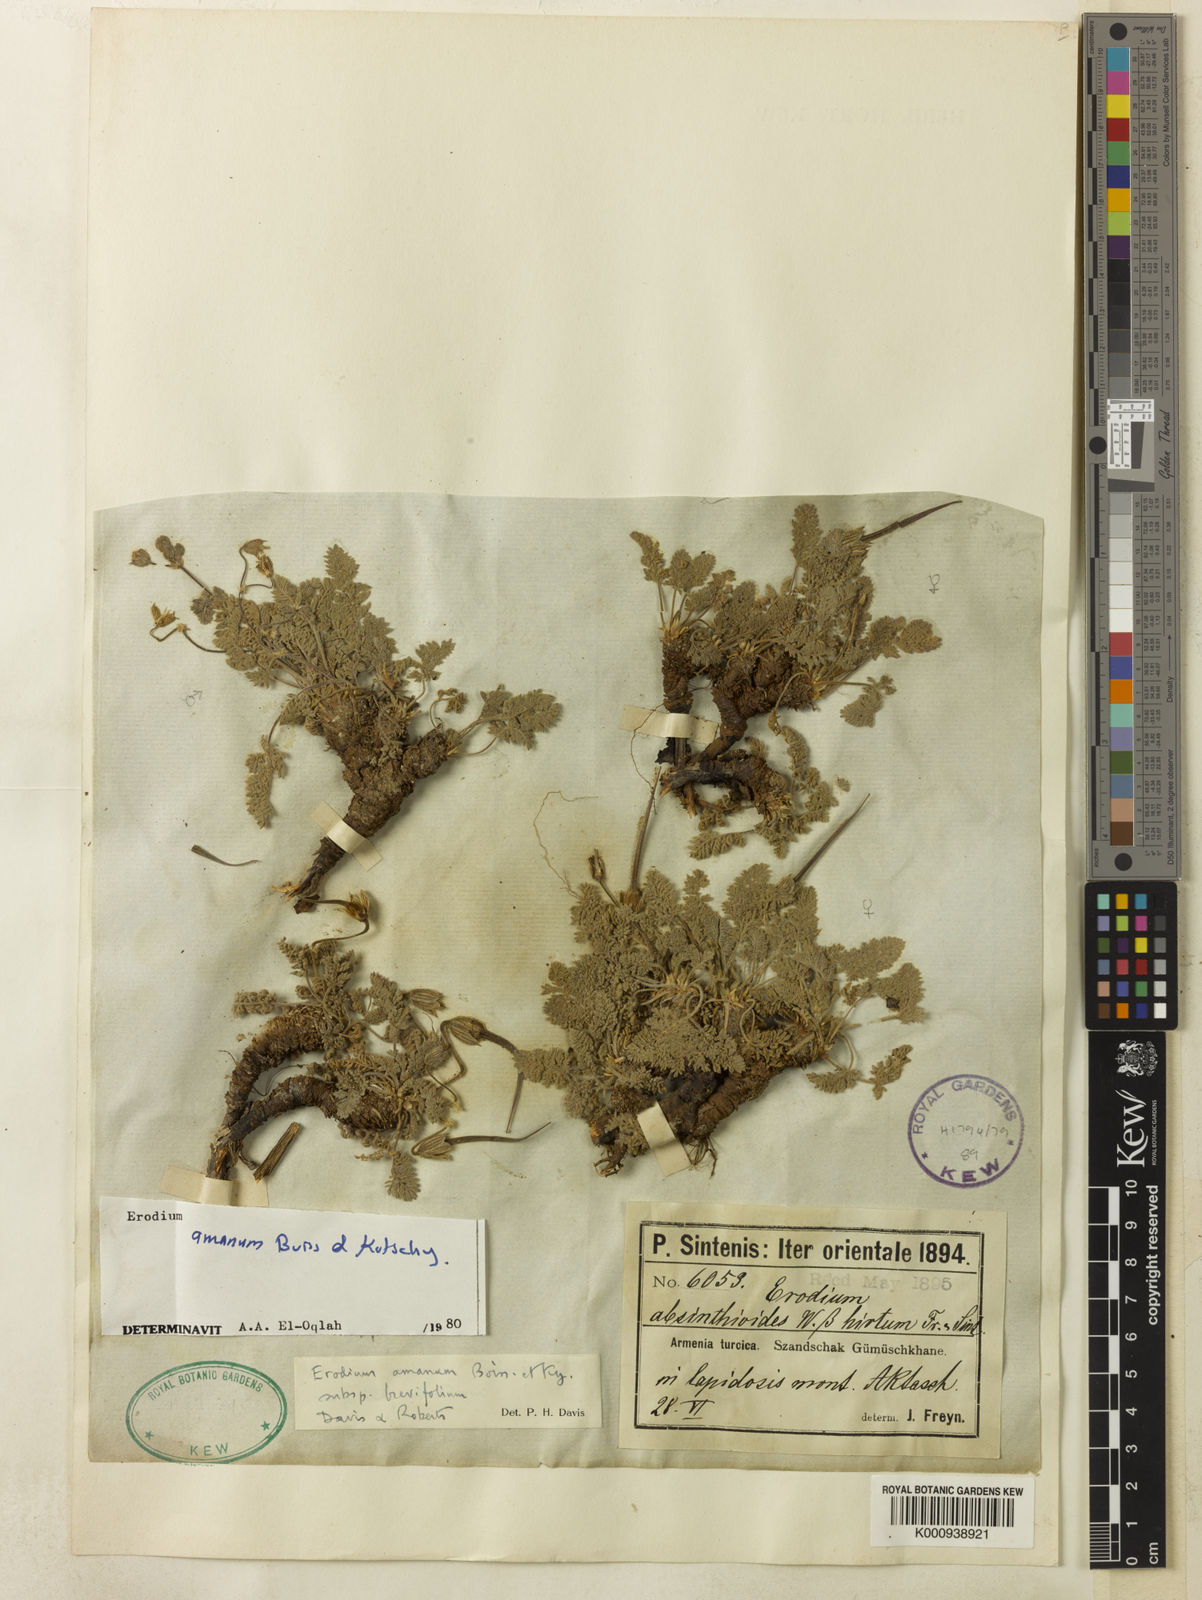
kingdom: Plantae
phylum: Tracheophyta
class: Magnoliopsida
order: Geraniales
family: Geraniaceae
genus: Erodium
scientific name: Erodium trichomanifolium
